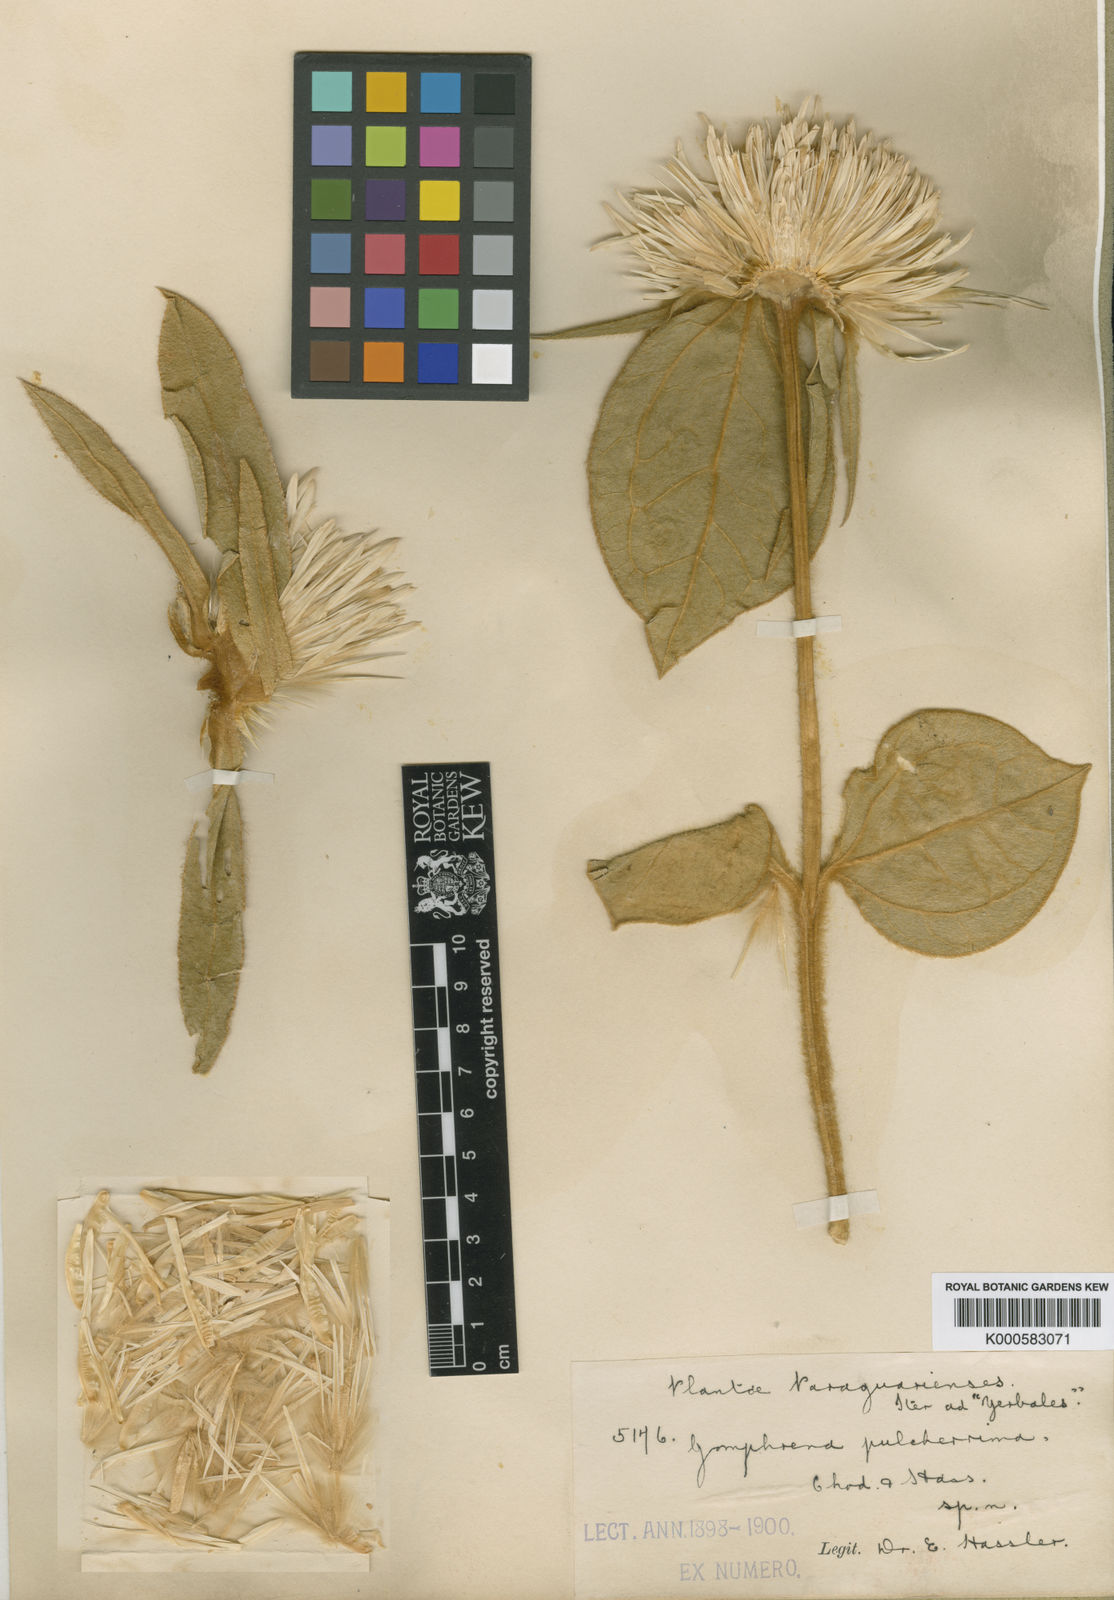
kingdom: Plantae
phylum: Tracheophyta
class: Magnoliopsida
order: Caryophyllales
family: Amaranthaceae
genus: Gomphrena
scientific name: Gomphrena macrocephala
